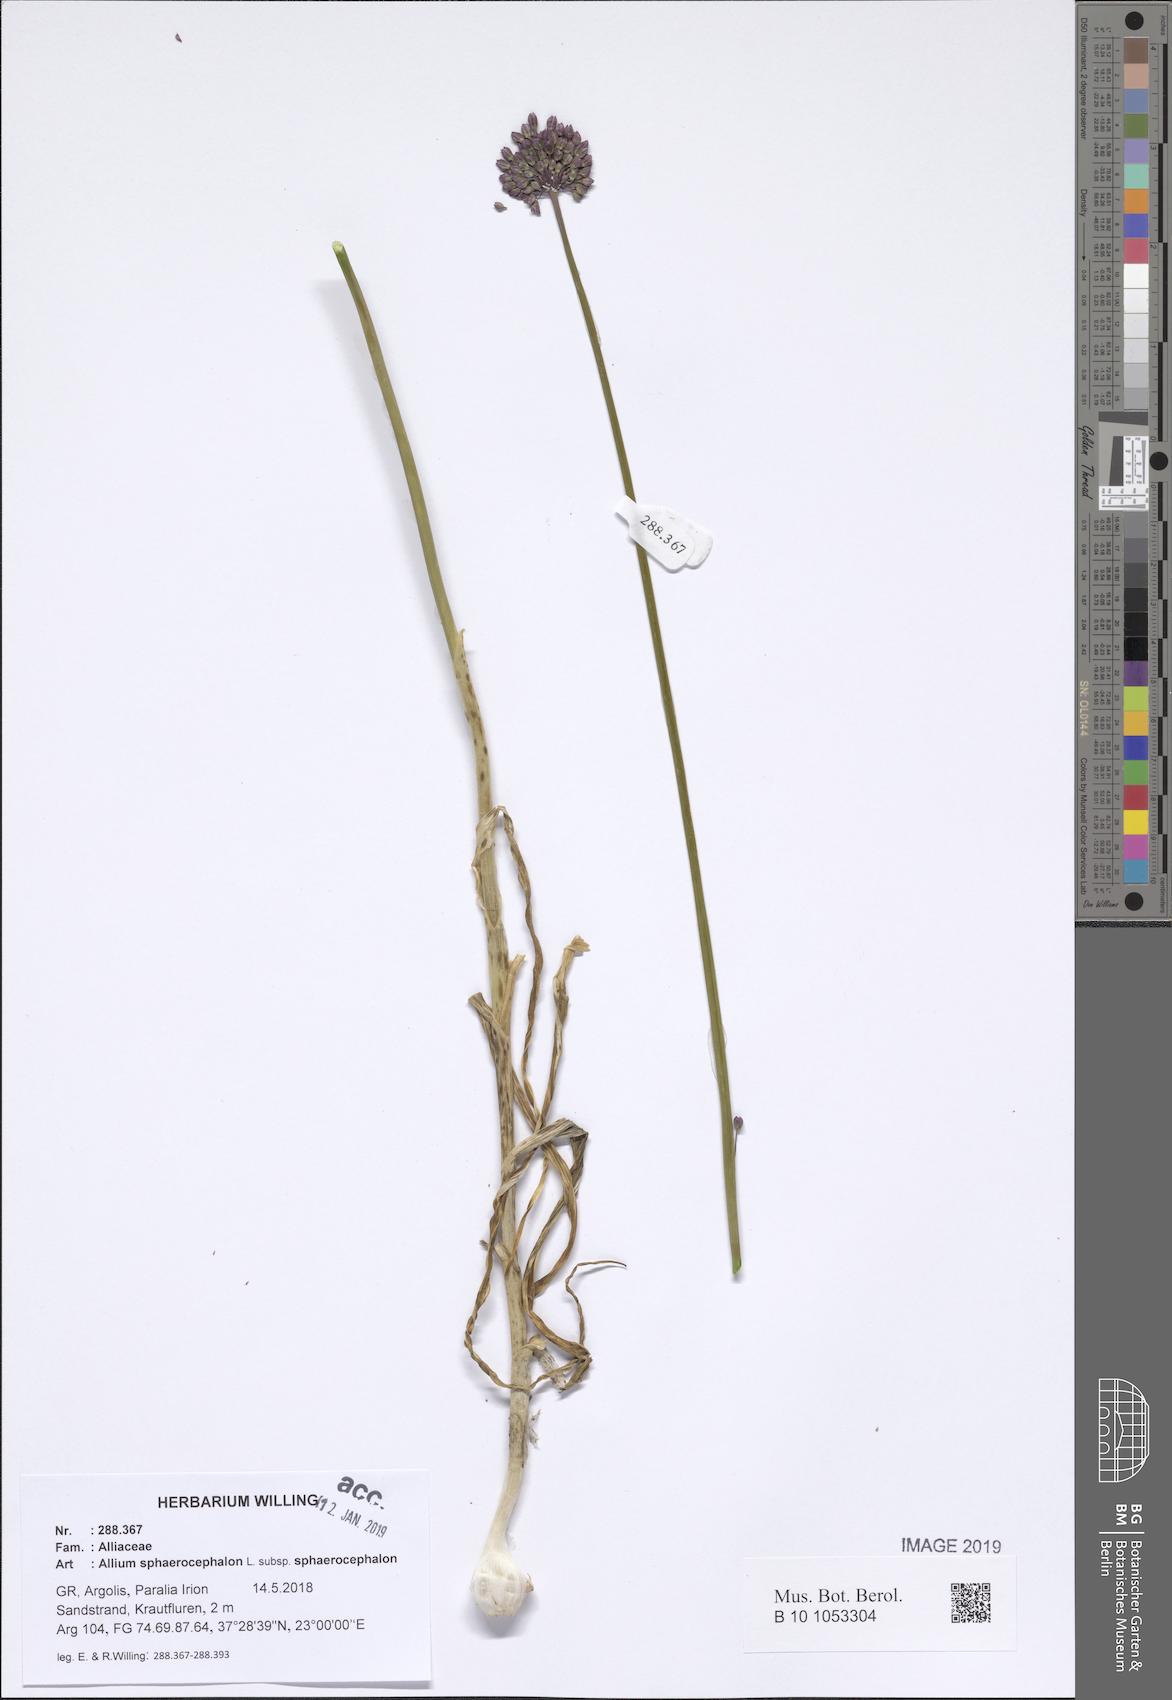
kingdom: Plantae
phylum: Tracheophyta
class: Liliopsida
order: Asparagales
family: Amaryllidaceae
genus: Allium
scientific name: Allium sphaerocephalon
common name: Round-headed leek
